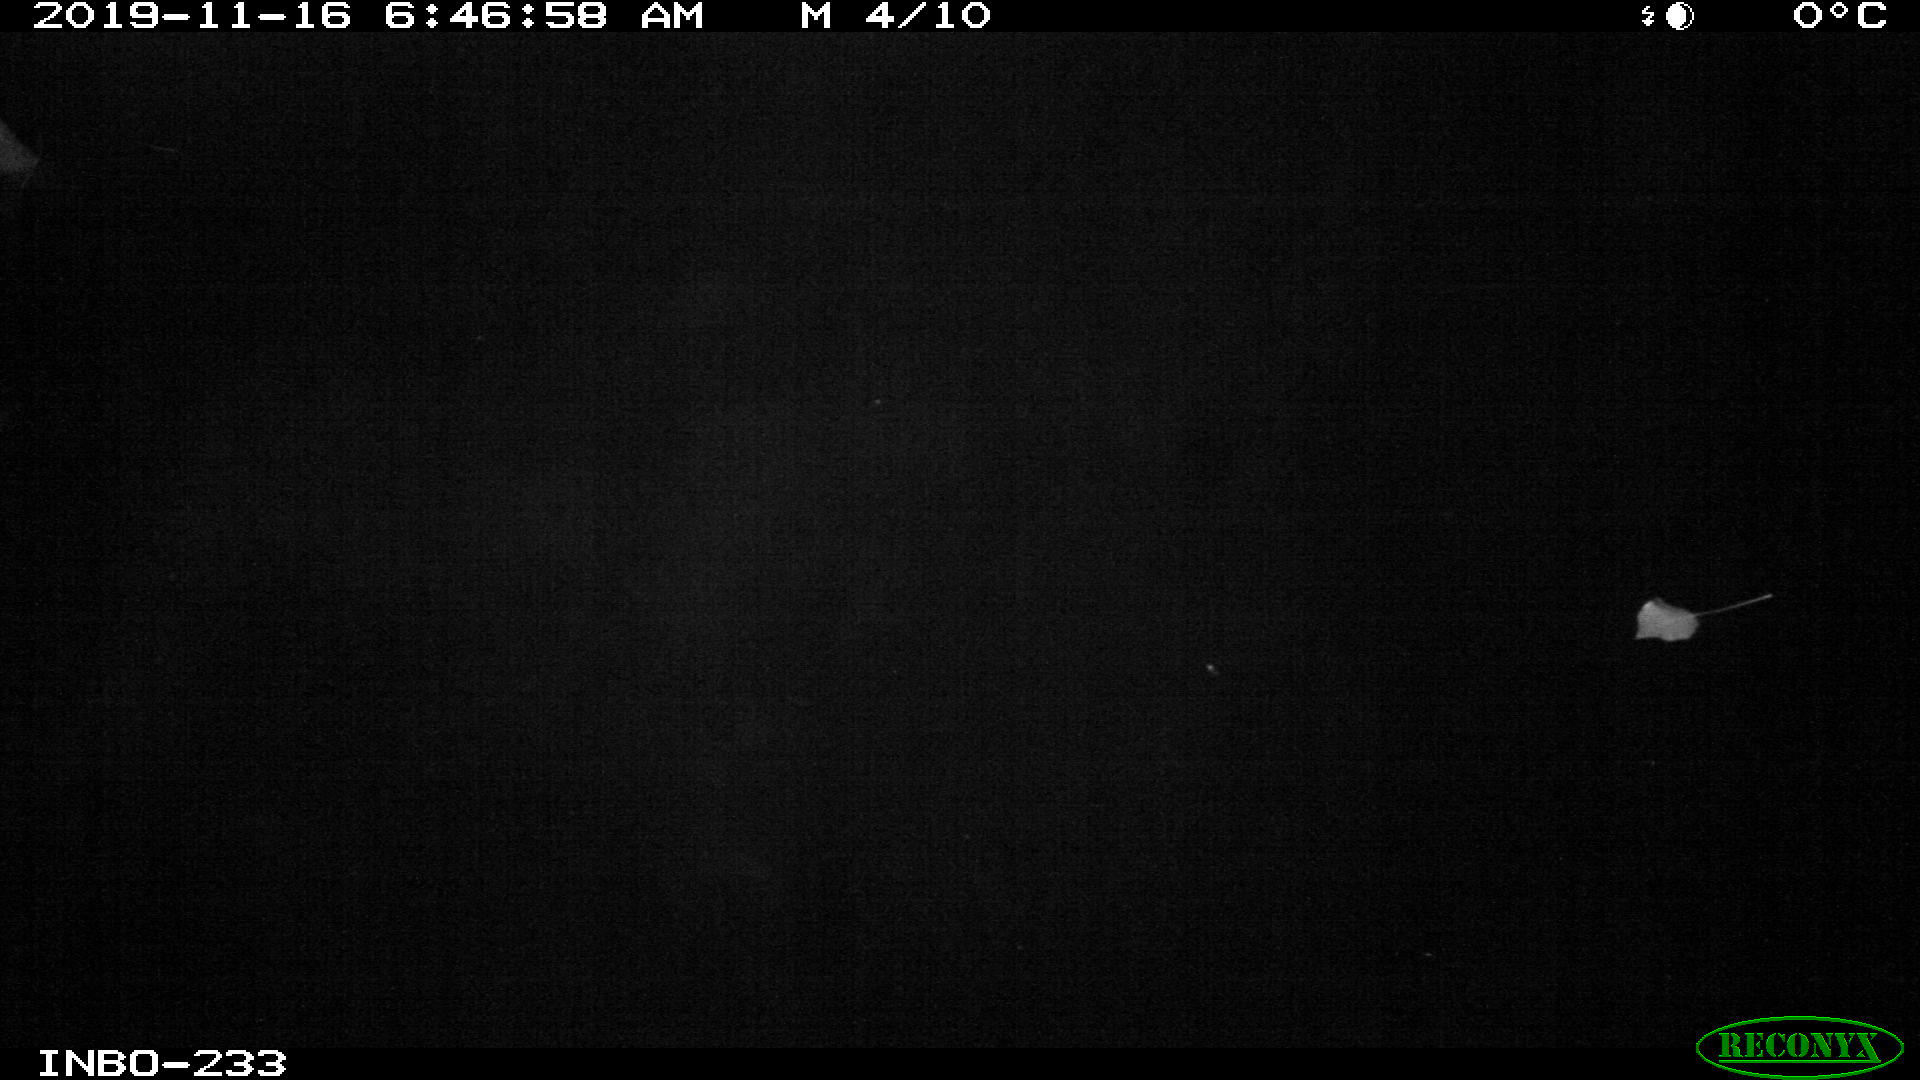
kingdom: Animalia
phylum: Chordata
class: Aves
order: Anseriformes
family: Anatidae
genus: Anas
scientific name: Anas platyrhynchos
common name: Mallard
